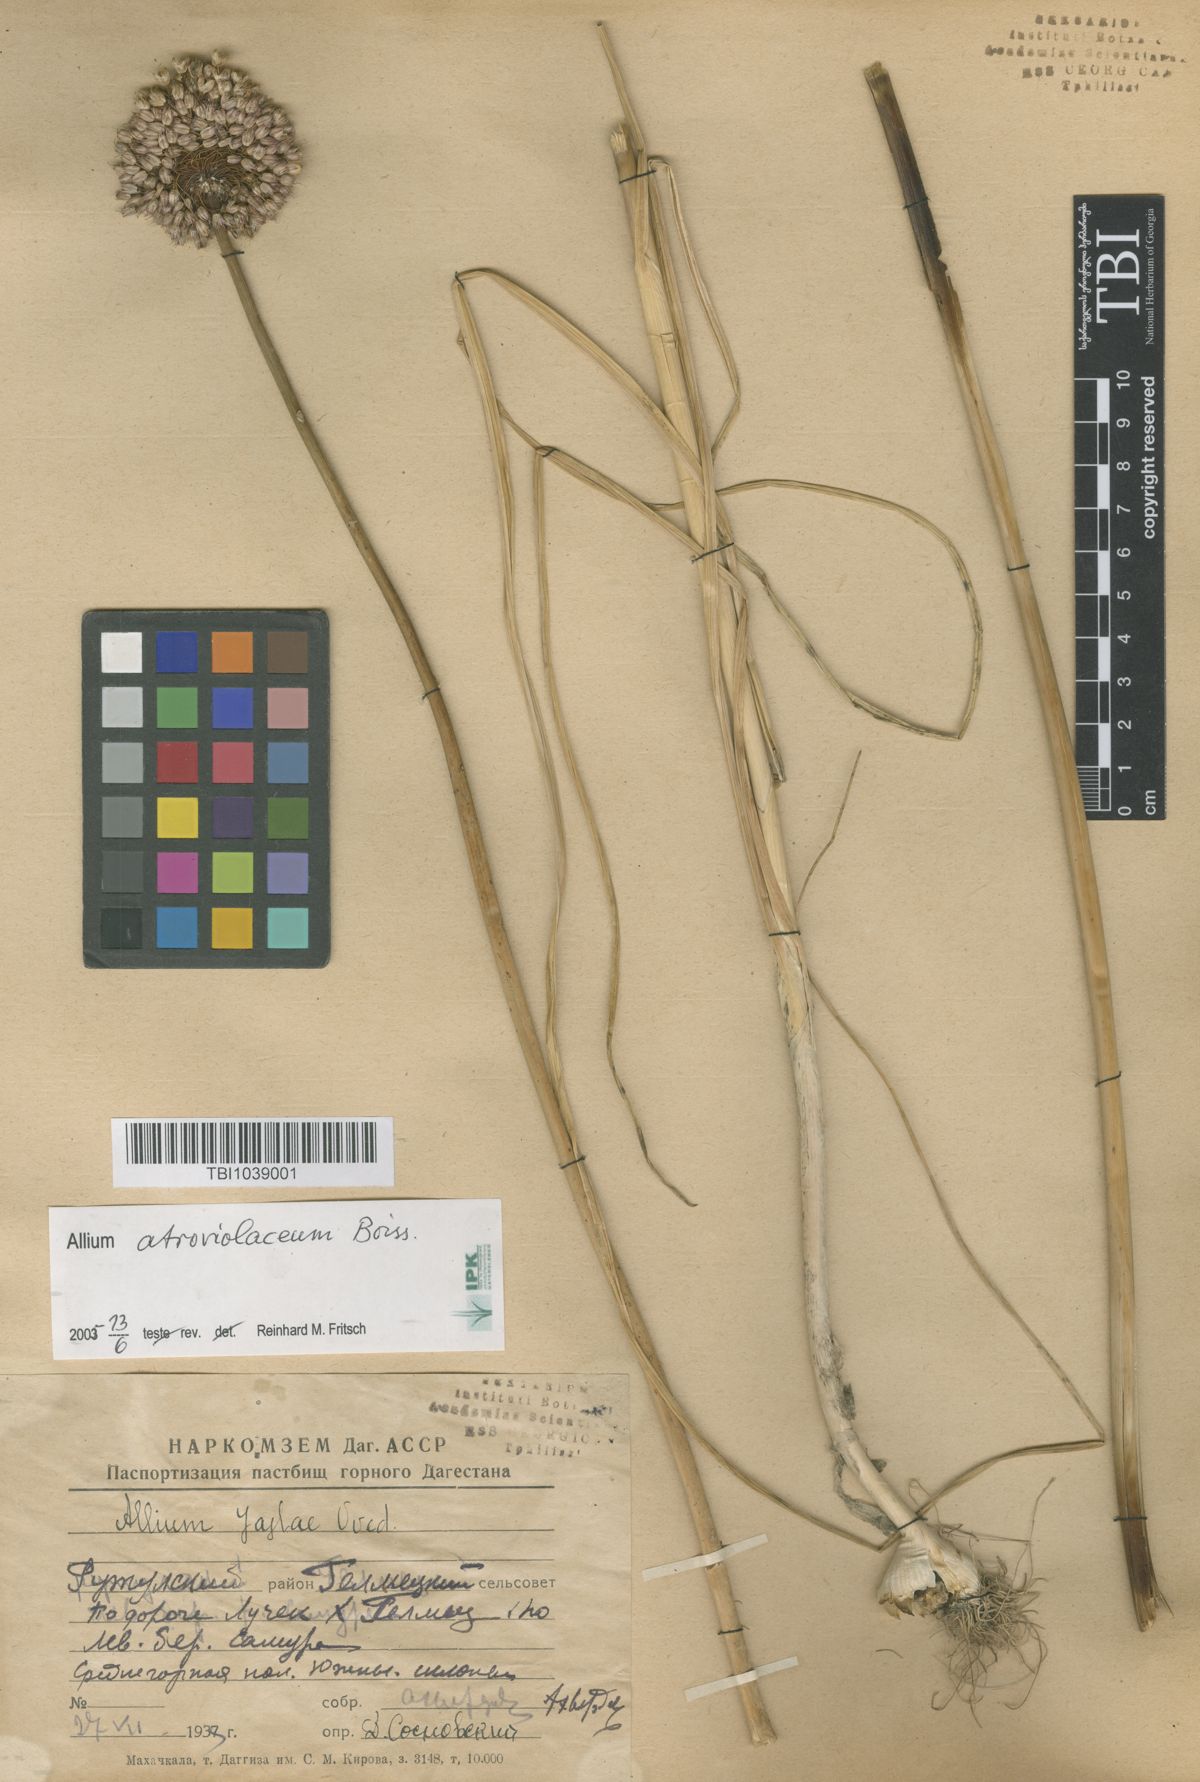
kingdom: Plantae
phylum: Tracheophyta
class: Liliopsida
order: Asparagales
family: Amaryllidaceae
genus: Allium
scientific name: Allium rotundum
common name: Sand leek
